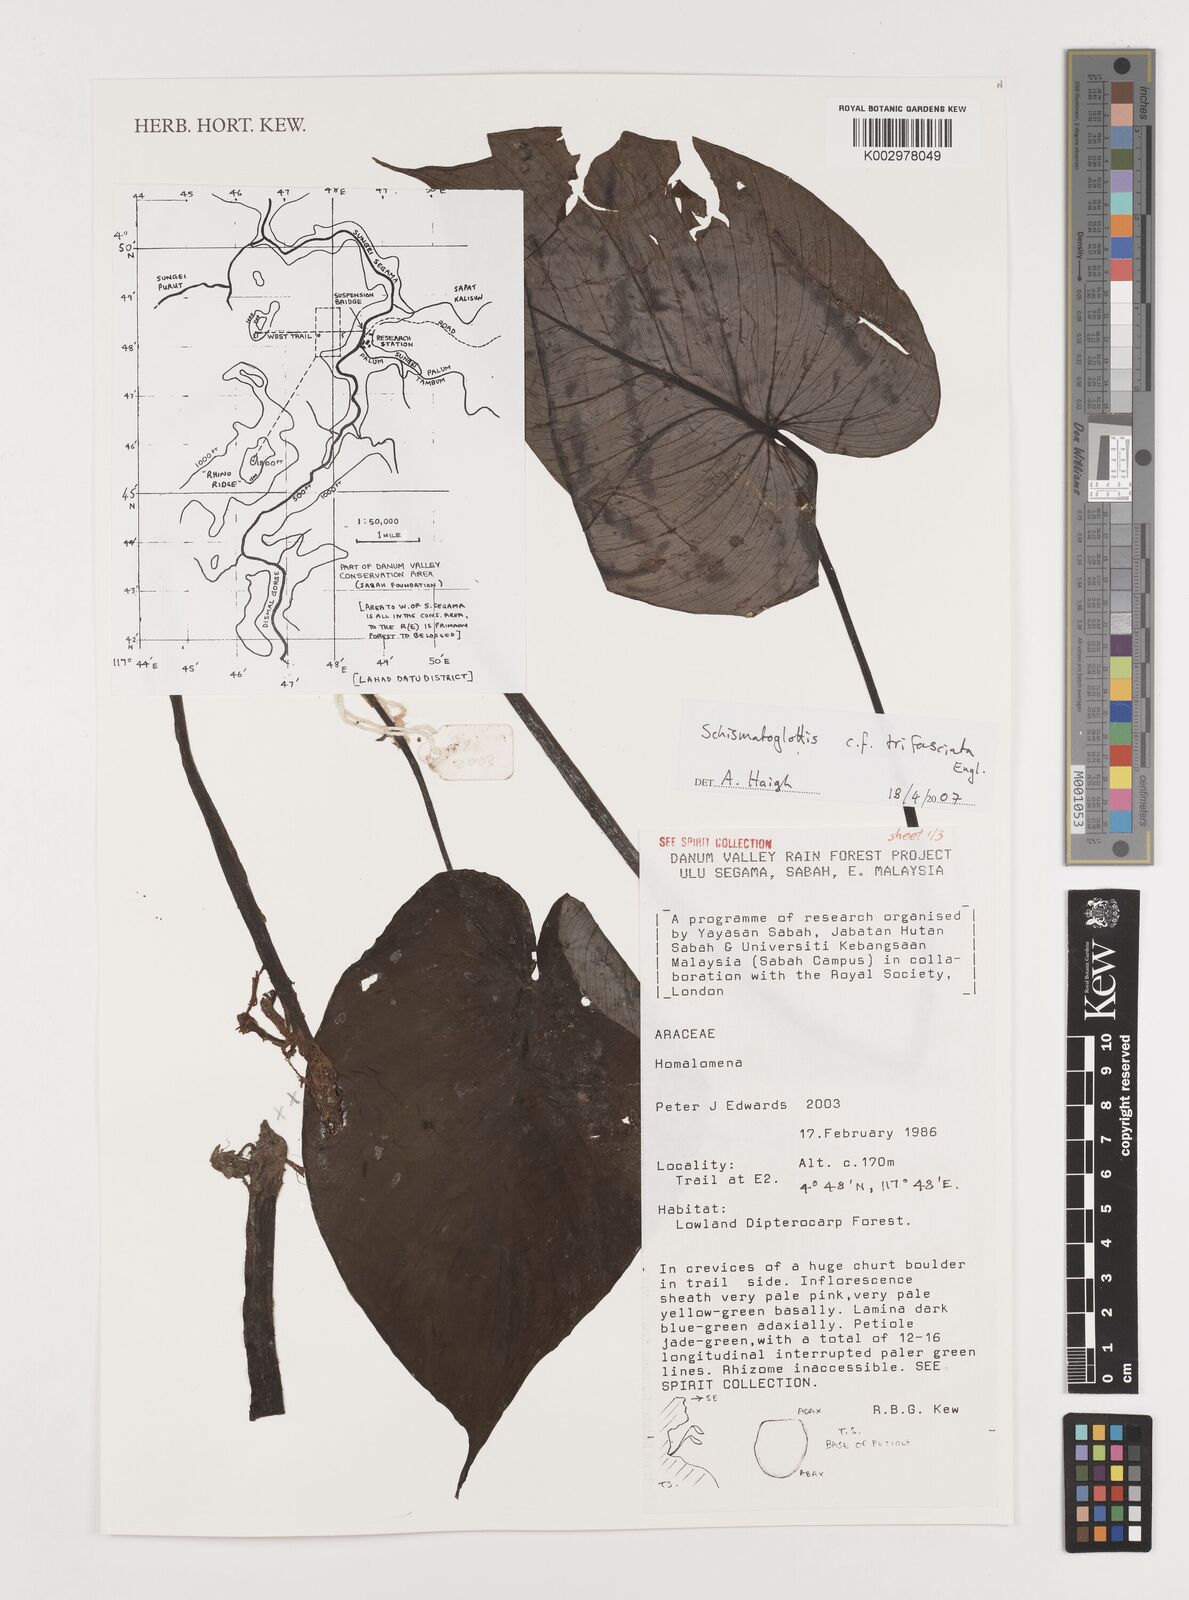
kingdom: Plantae
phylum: Tracheophyta
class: Liliopsida
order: Alismatales
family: Araceae
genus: Schismatoglottis
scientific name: Schismatoglottis trifasciata
